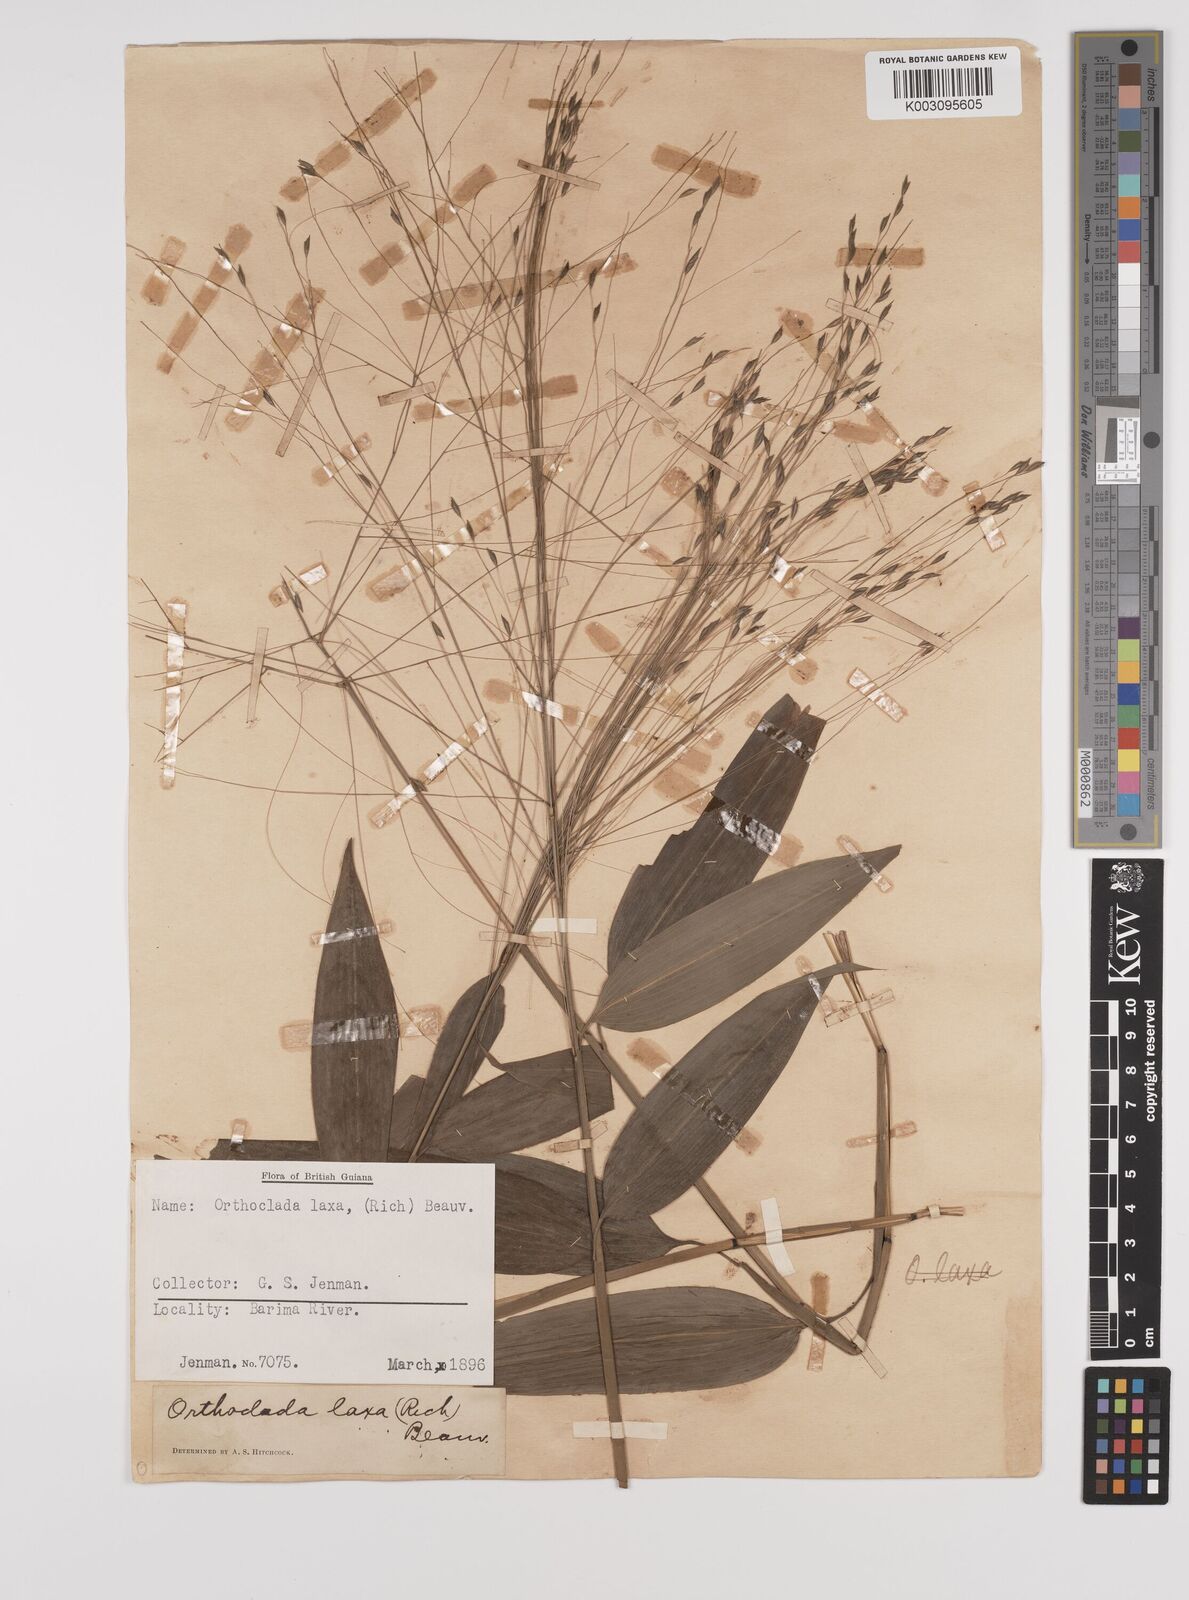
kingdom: Plantae
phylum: Tracheophyta
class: Liliopsida
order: Poales
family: Poaceae
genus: Orthoclada
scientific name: Orthoclada laxa
